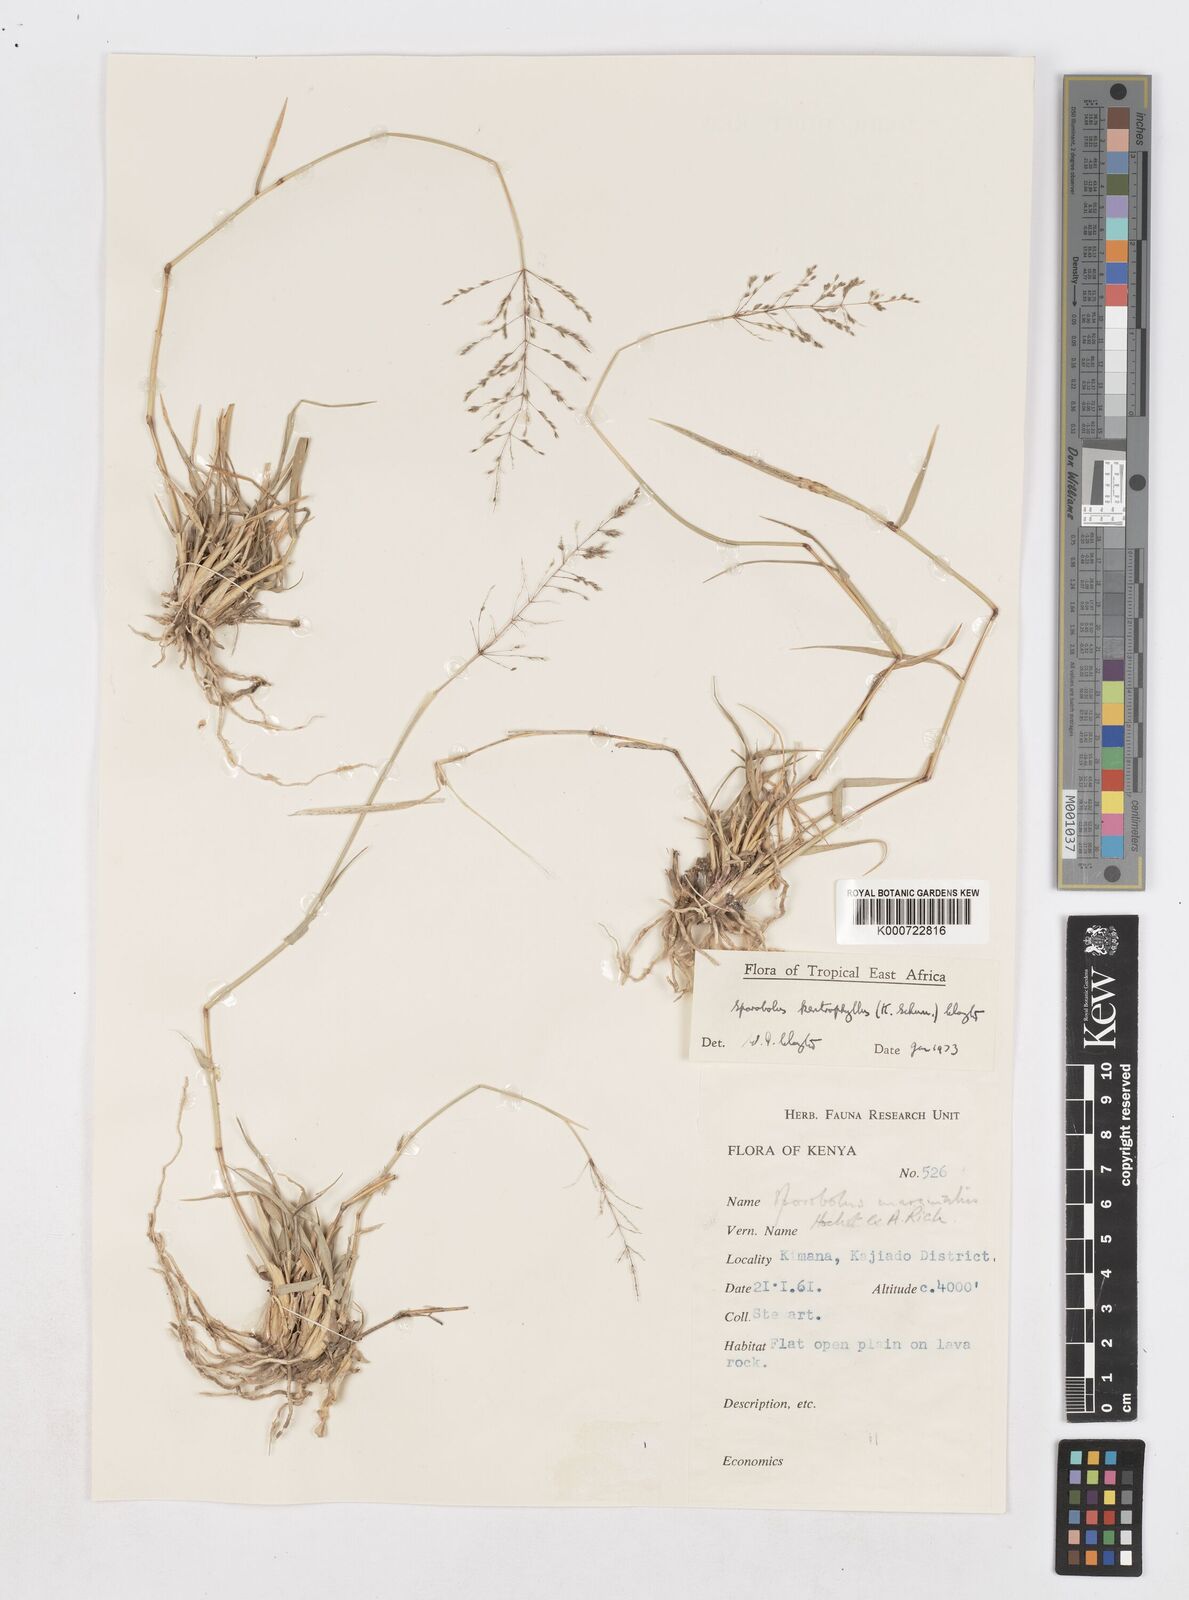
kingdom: Plantae
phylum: Tracheophyta
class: Liliopsida
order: Poales
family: Poaceae
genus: Sporobolus
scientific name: Sporobolus ioclados
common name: Pan dropseed
